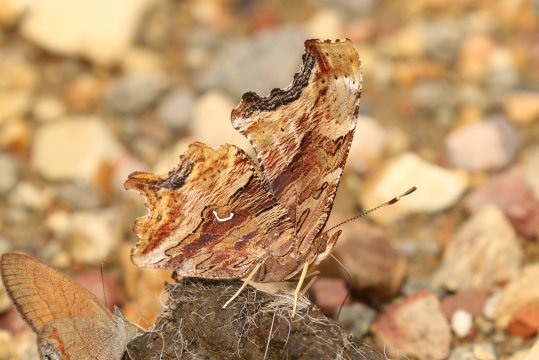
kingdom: Animalia
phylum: Arthropoda
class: Insecta
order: Lepidoptera
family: Nymphalidae
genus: Polygonia
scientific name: Polygonia satyrus
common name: Satyr Comma
